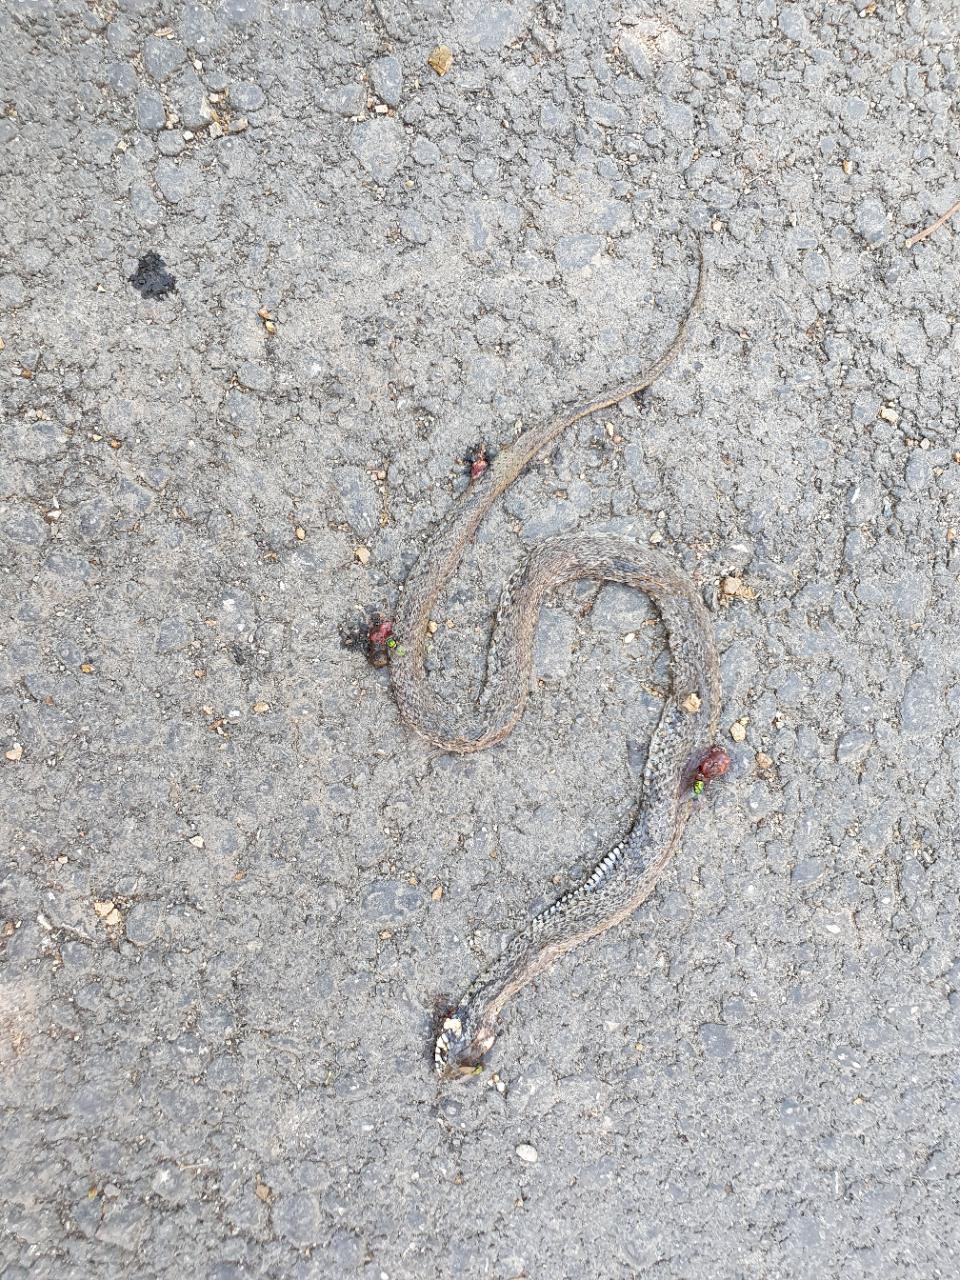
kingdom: Animalia
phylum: Chordata
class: Squamata
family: Colubridae
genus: Natrix
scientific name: Natrix natrix
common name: Grass snake
